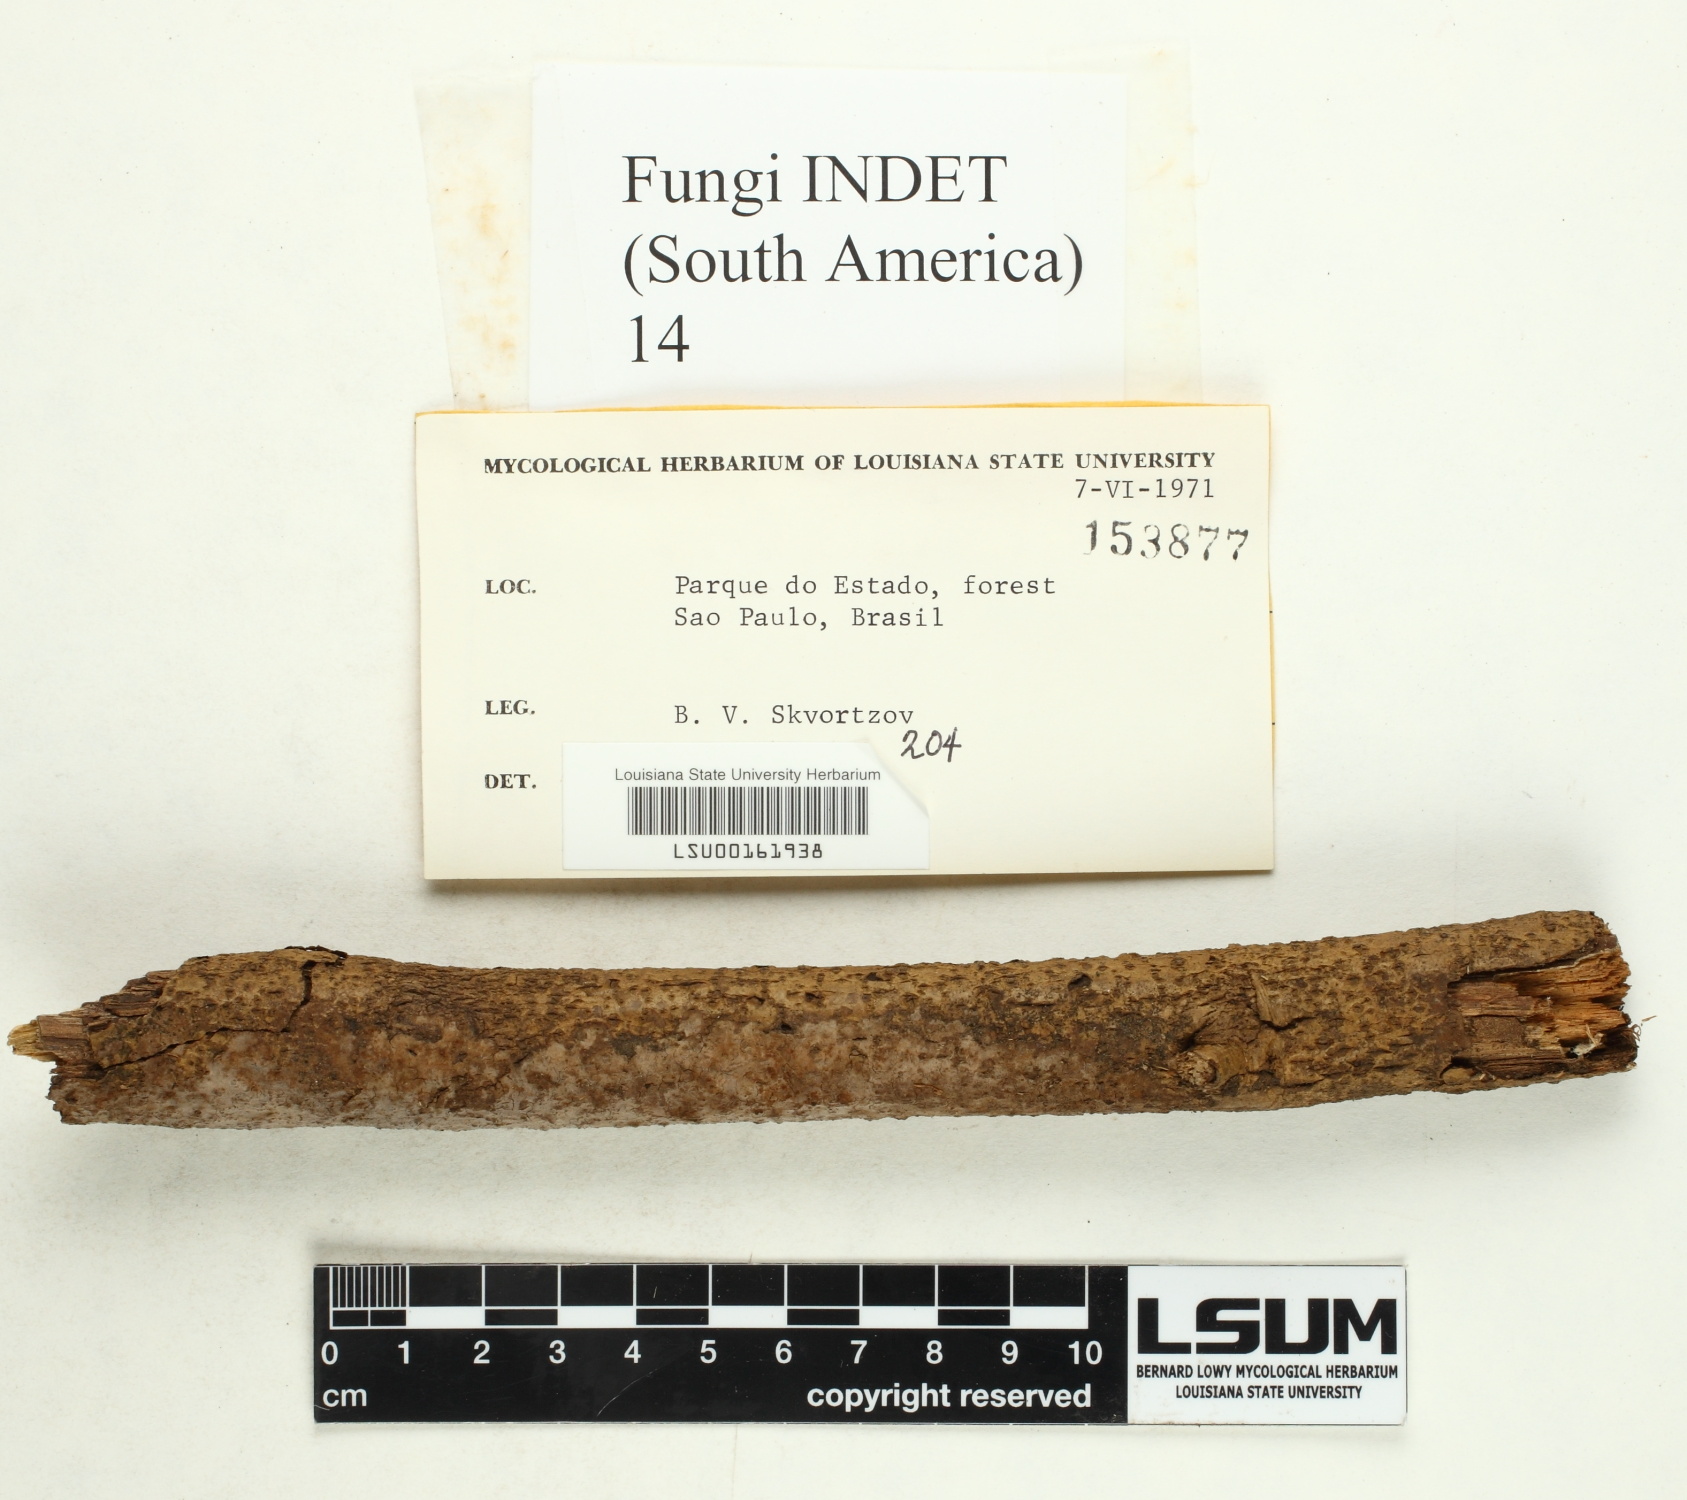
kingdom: Fungi
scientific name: Fungi
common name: Fungi
